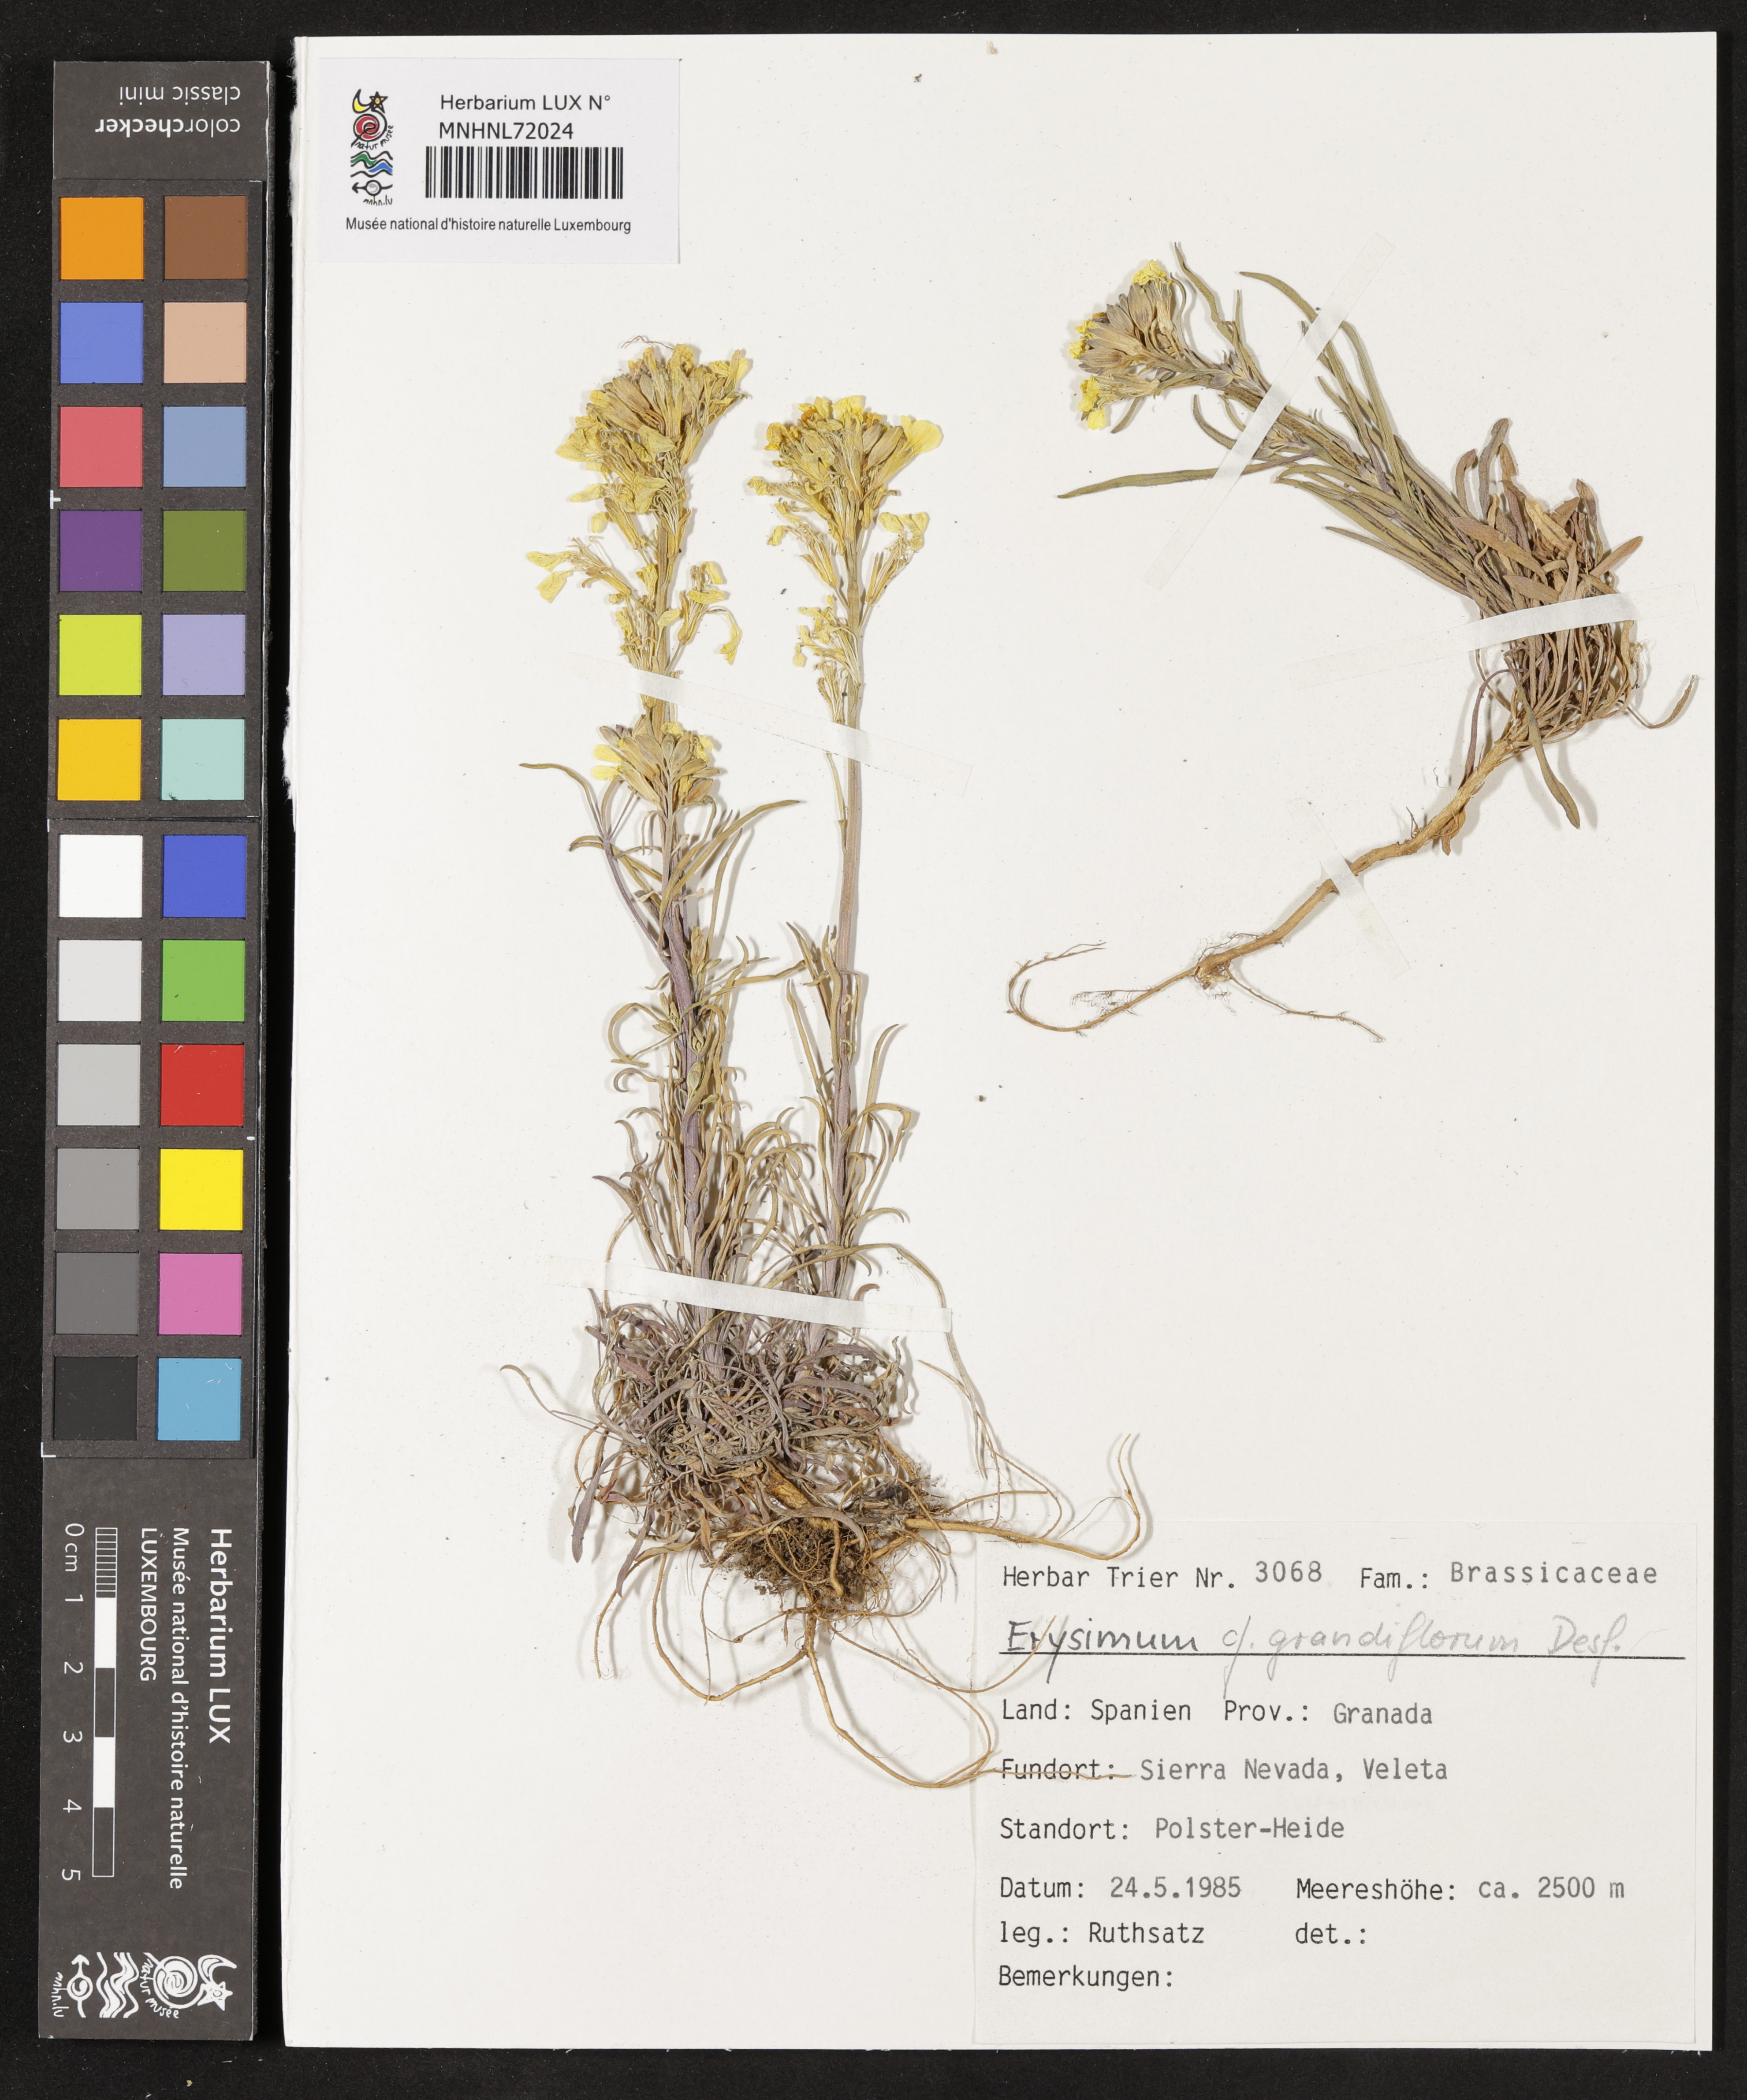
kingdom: Plantae
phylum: Tracheophyta
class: Magnoliopsida
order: Brassicales
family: Brassicaceae
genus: Erysimum
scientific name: Erysimum duriaei
